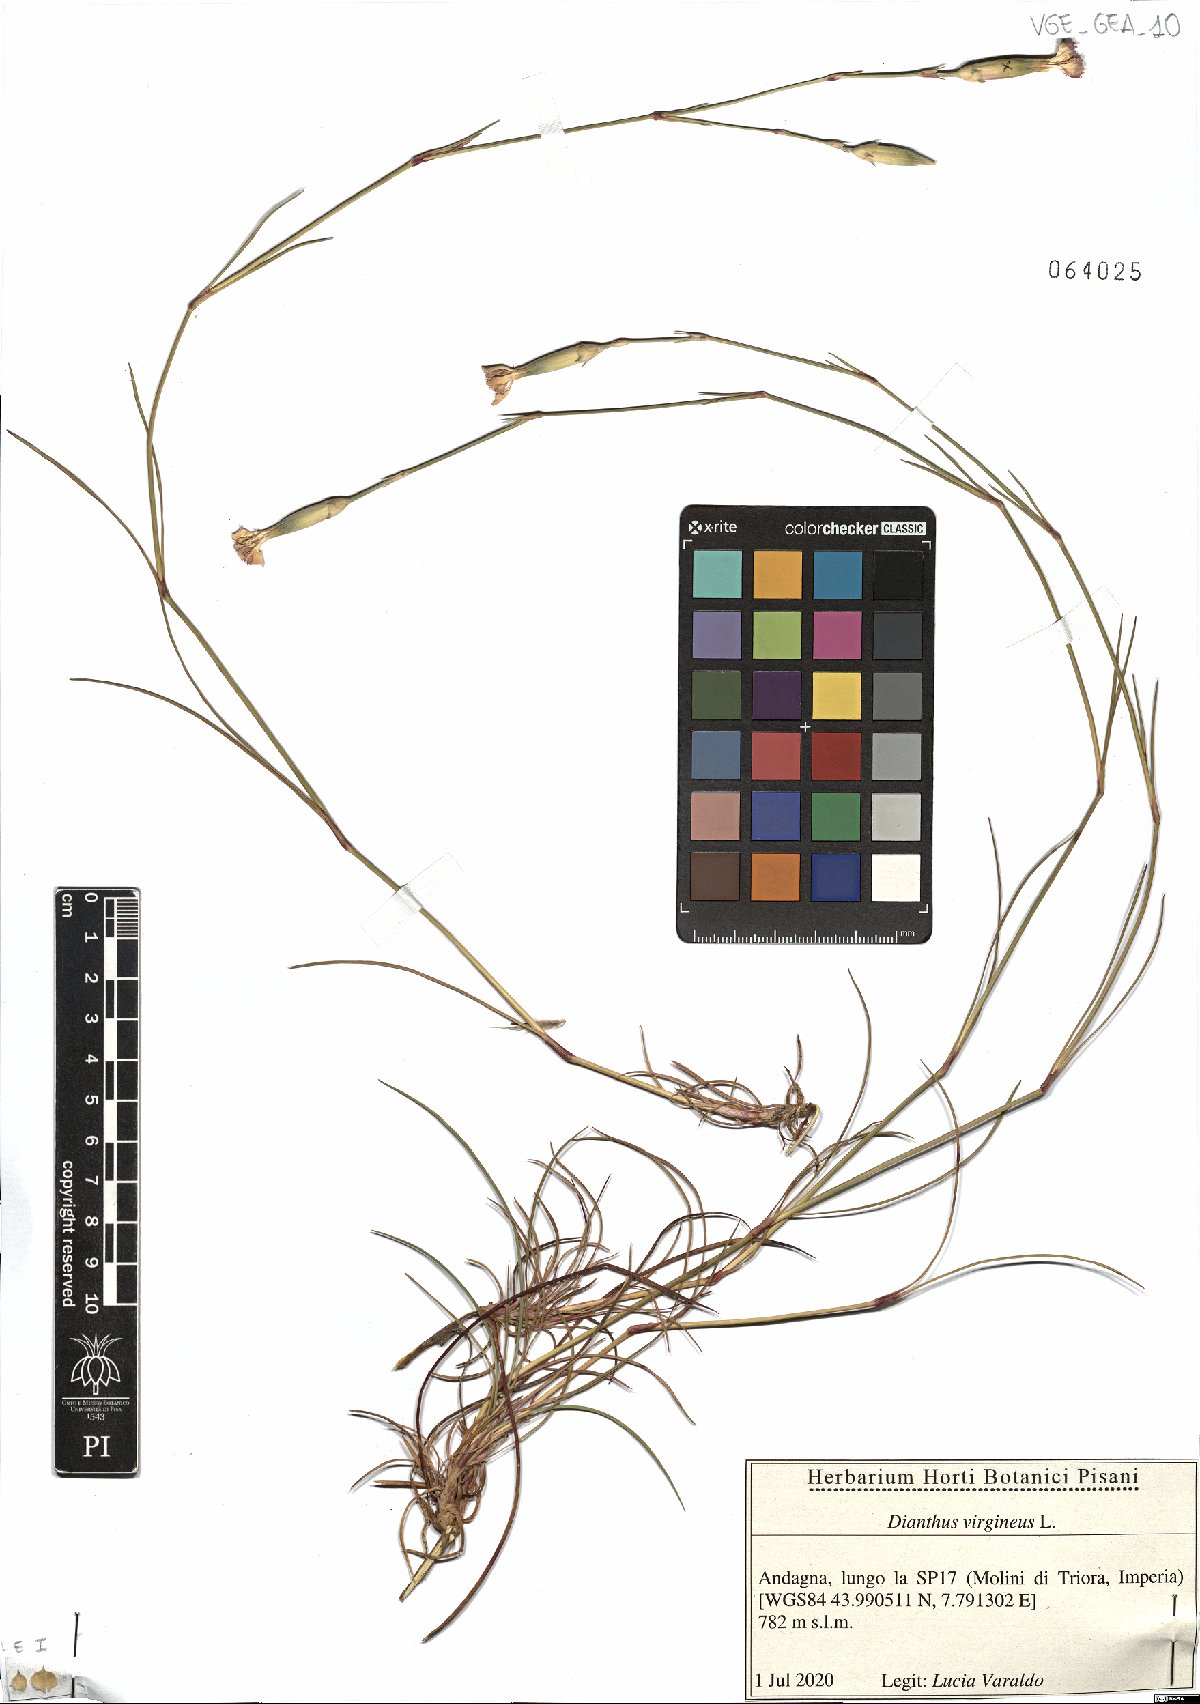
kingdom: Plantae
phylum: Tracheophyta
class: Magnoliopsida
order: Caryophyllales
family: Caryophyllaceae
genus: Dianthus
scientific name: Dianthus virgineus
